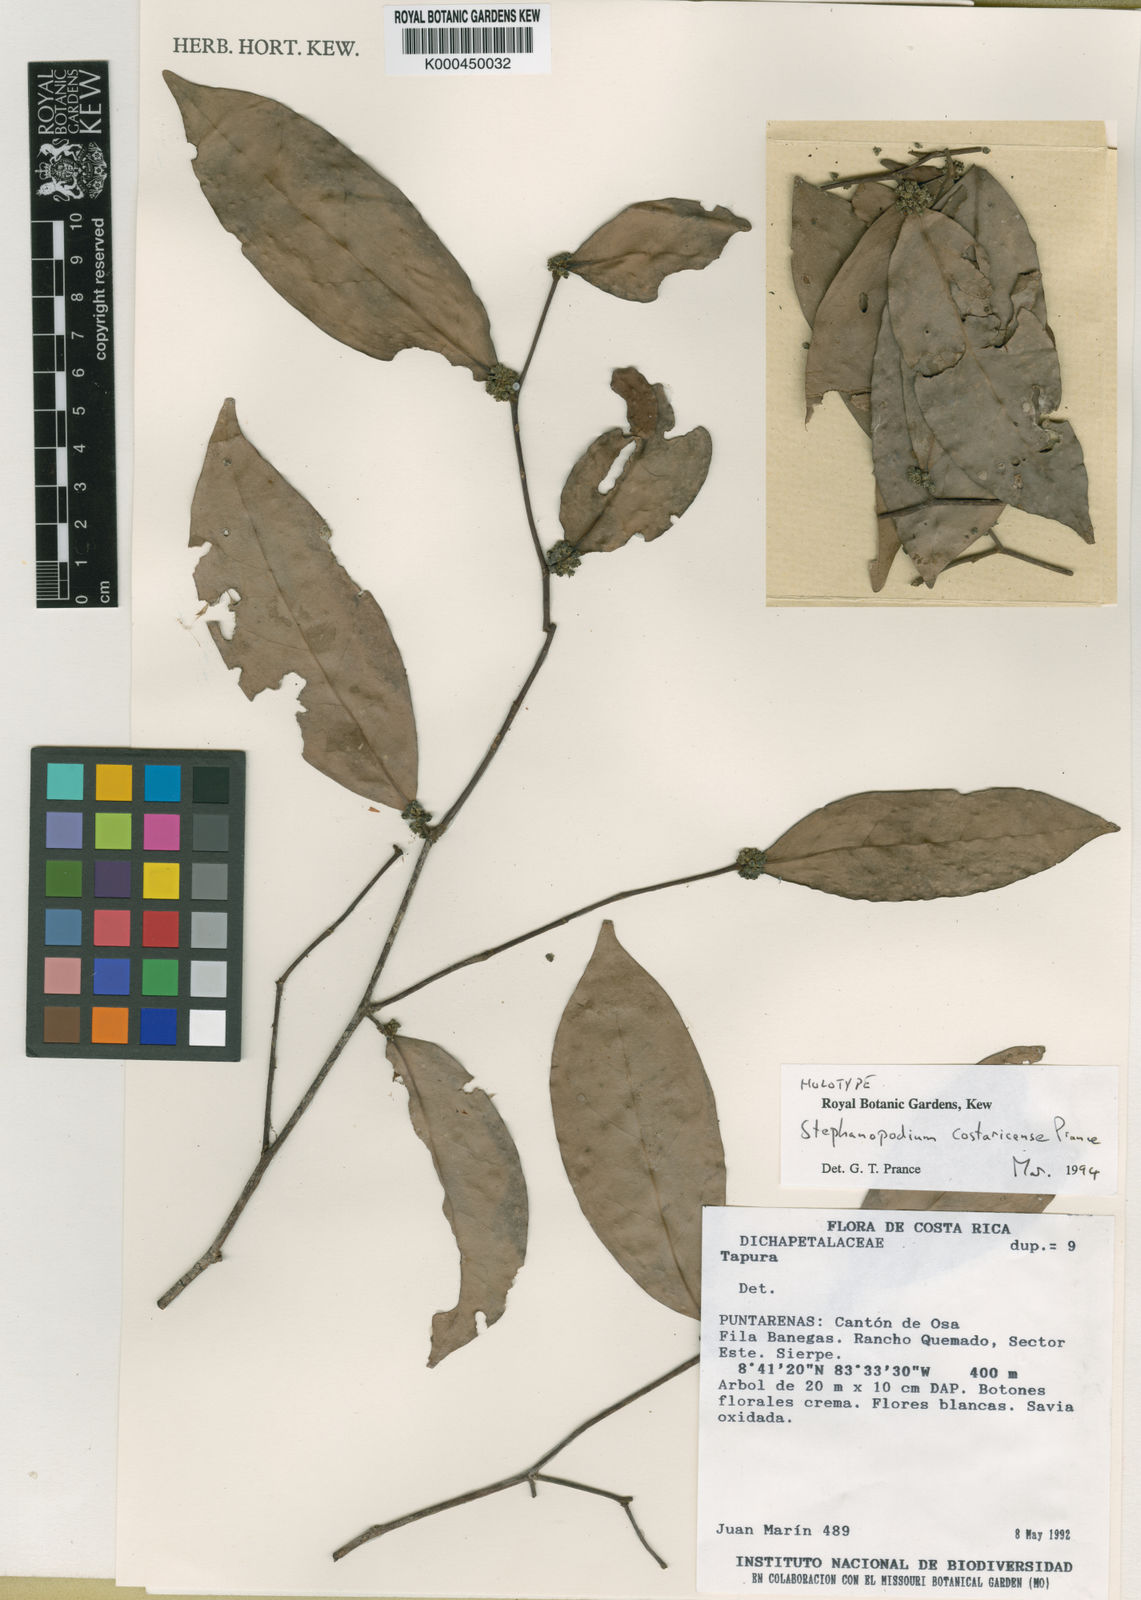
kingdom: Plantae
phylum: Tracheophyta
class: Magnoliopsida
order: Malpighiales
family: Dichapetalaceae
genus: Stephanopodium
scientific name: Stephanopodium costaricense
